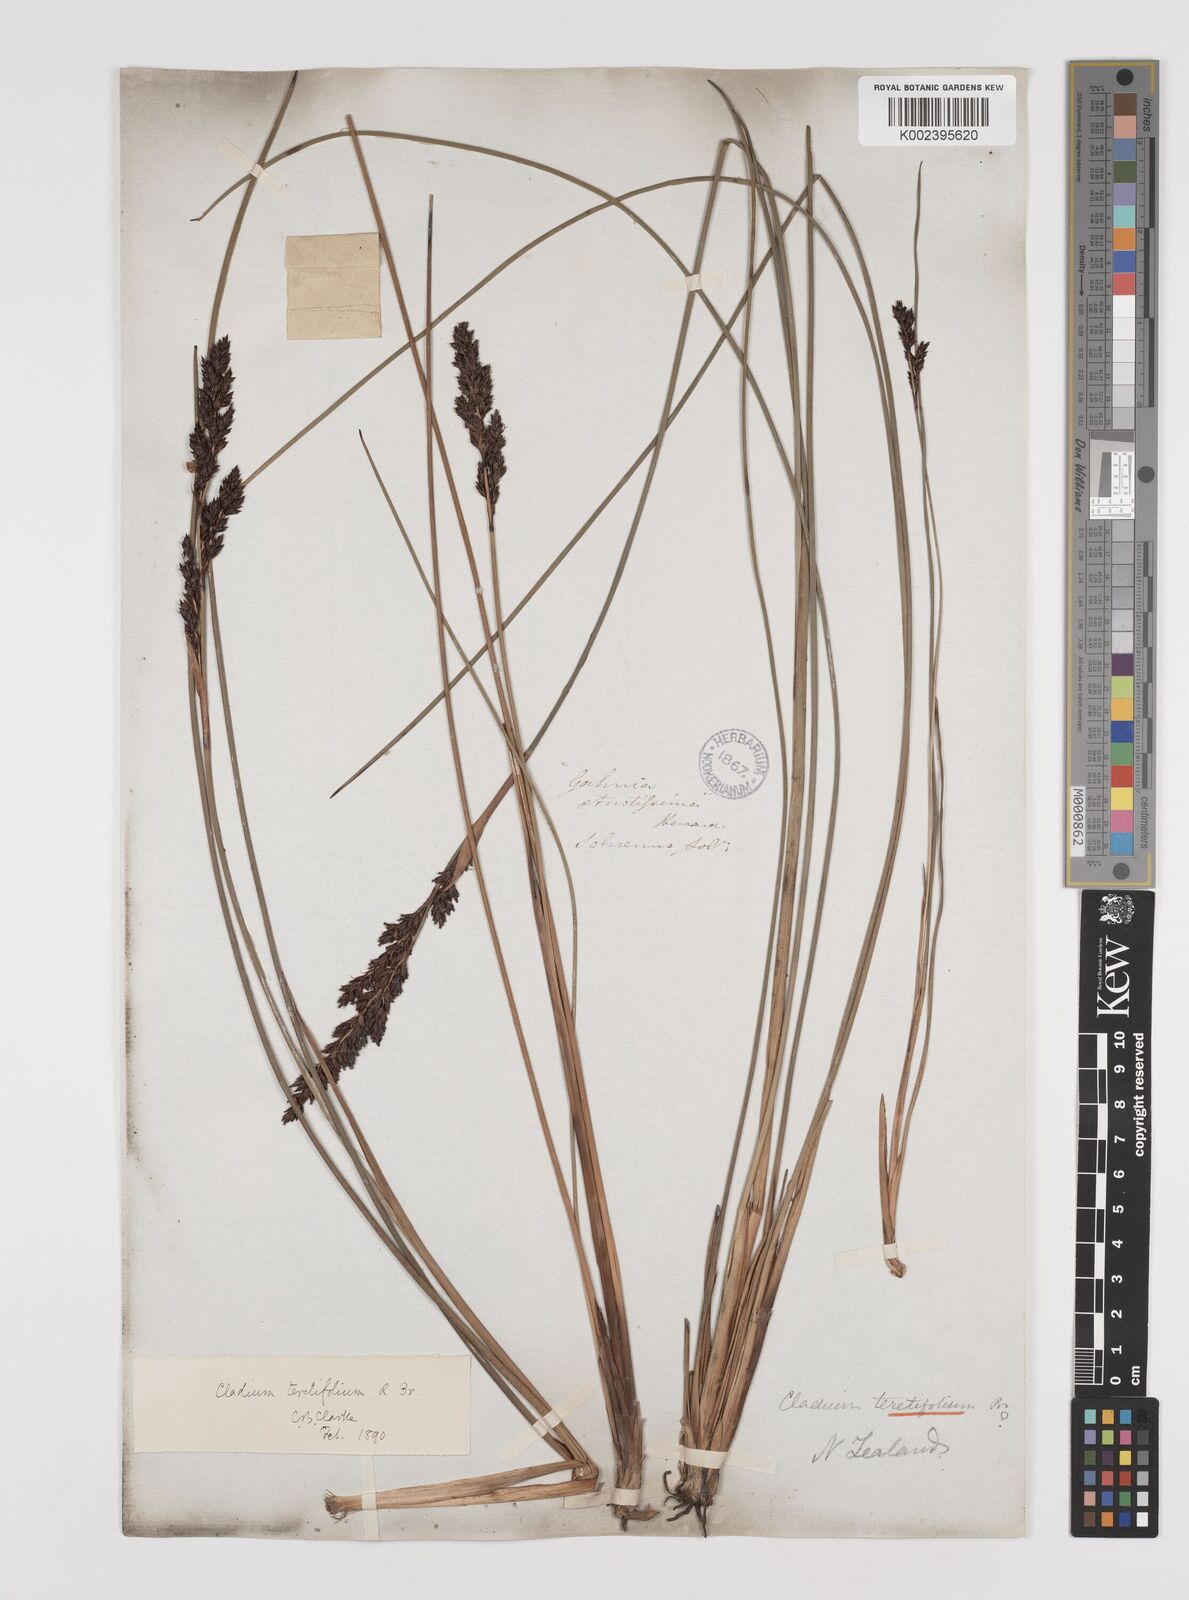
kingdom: Plantae
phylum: Tracheophyta
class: Liliopsida
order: Poales
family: Cyperaceae
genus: Machaerina
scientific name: Machaerina teretifolia
